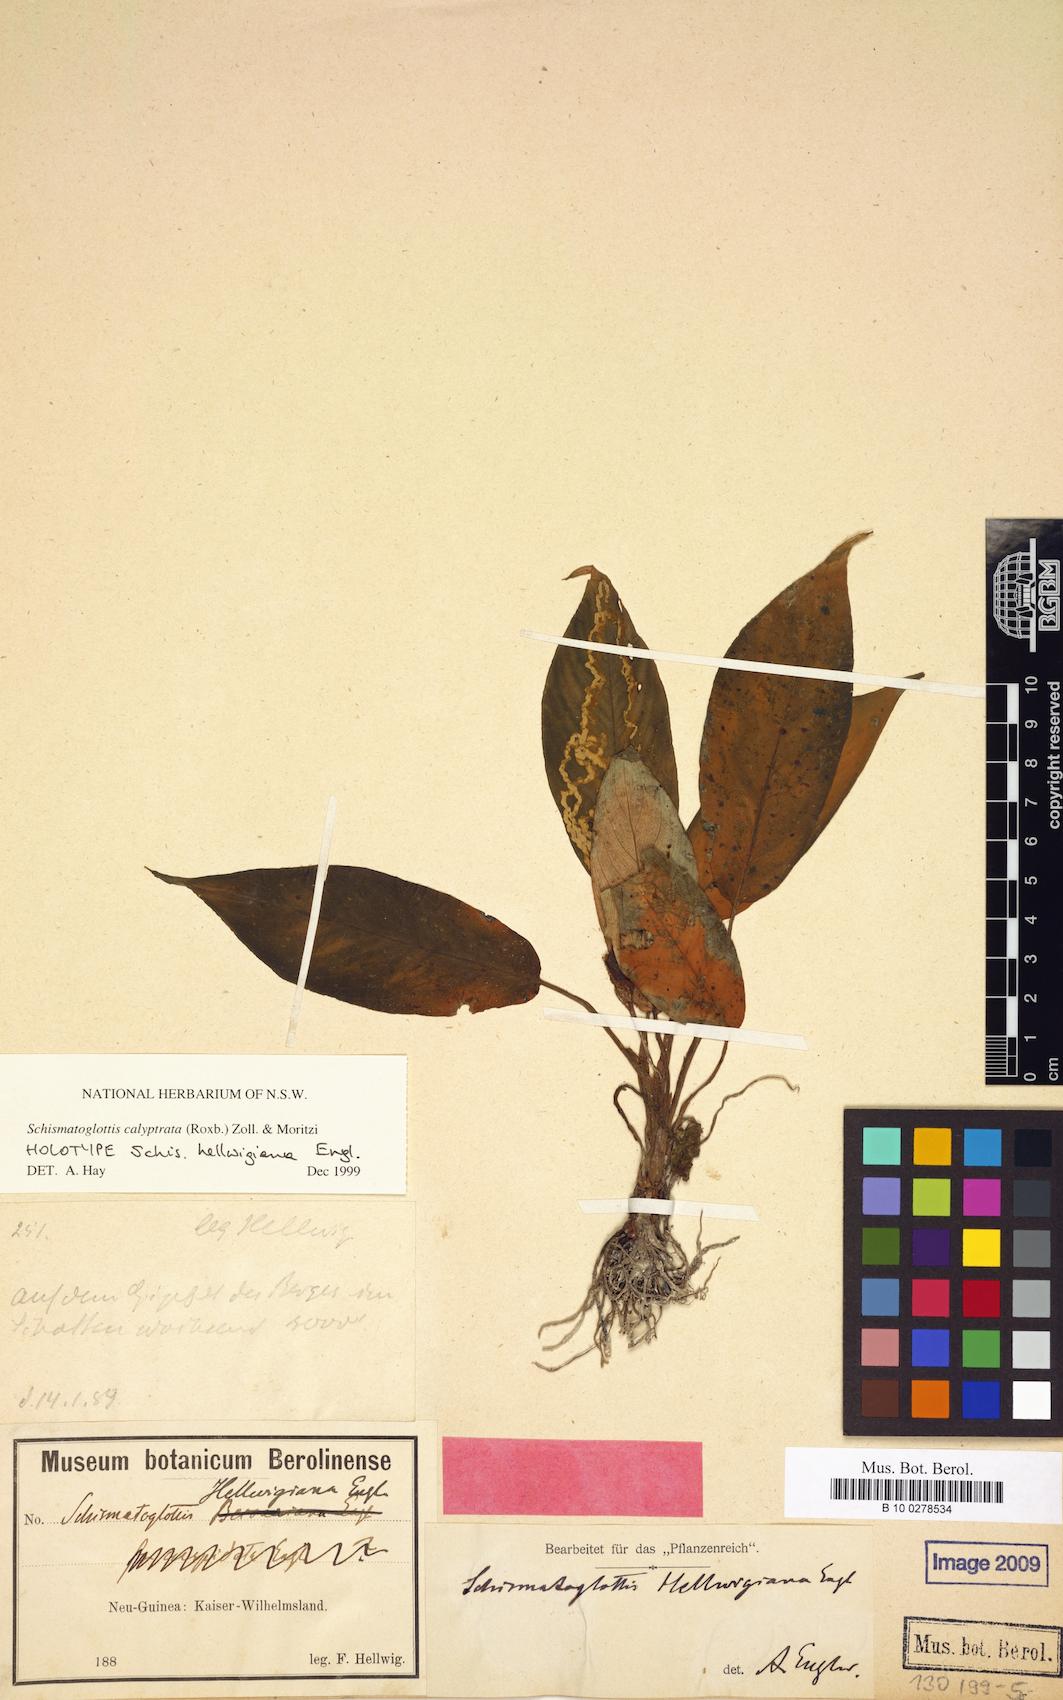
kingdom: Plantae
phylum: Tracheophyta
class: Liliopsida
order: Alismatales
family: Araceae
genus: Schismatoglottis
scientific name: Schismatoglottis calyptrata
